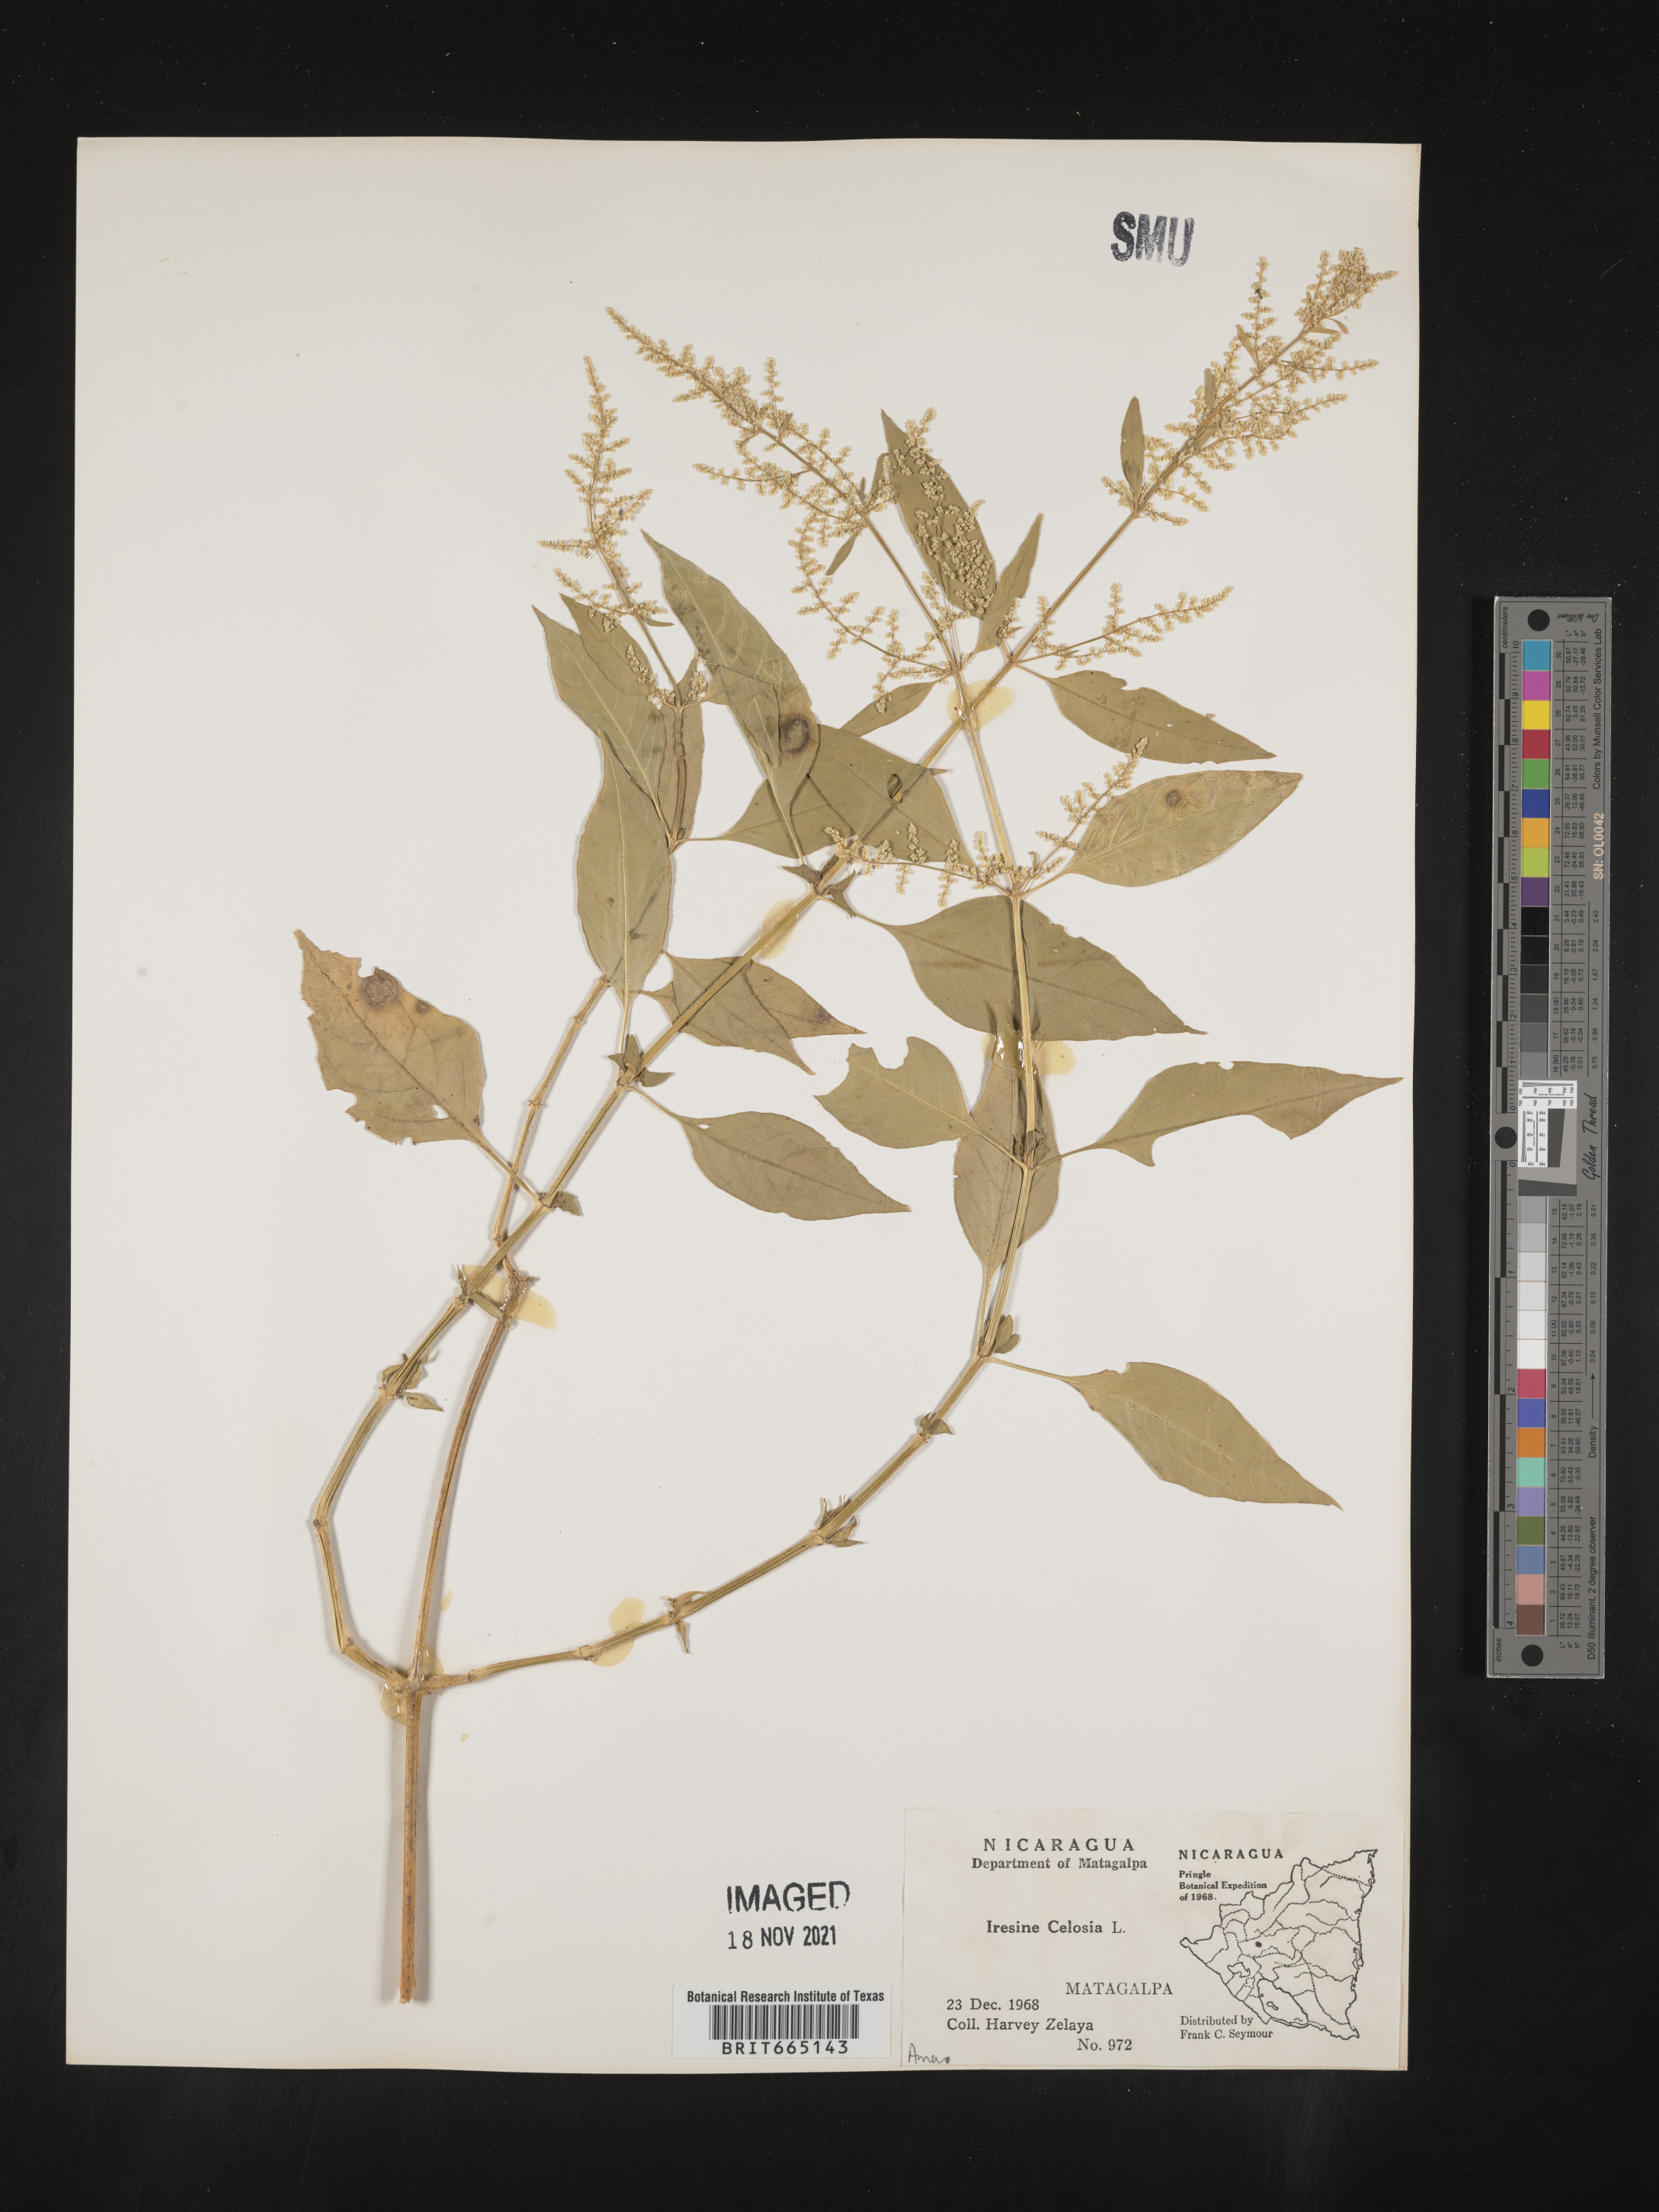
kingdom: Plantae
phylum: Tracheophyta
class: Magnoliopsida
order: Caryophyllales
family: Amaranthaceae
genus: Iresine
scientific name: Iresine
